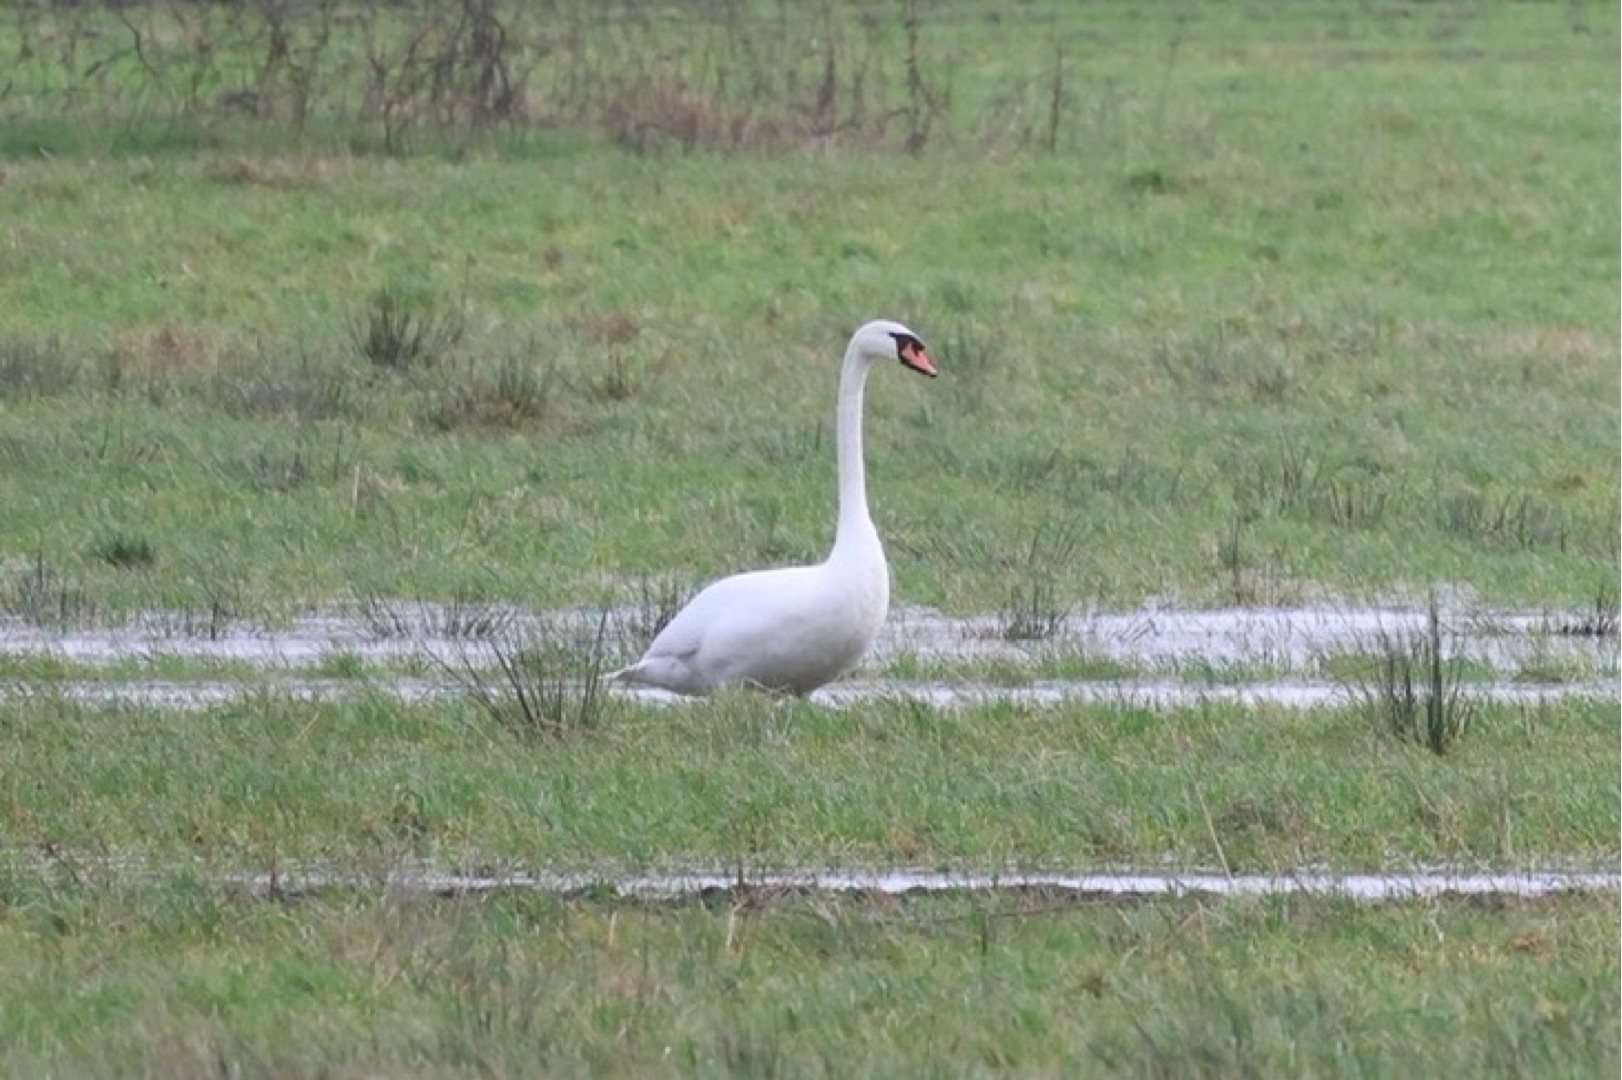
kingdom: Animalia
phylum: Chordata
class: Aves
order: Anseriformes
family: Anatidae
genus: Cygnus
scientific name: Cygnus olor
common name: Knopsvane
